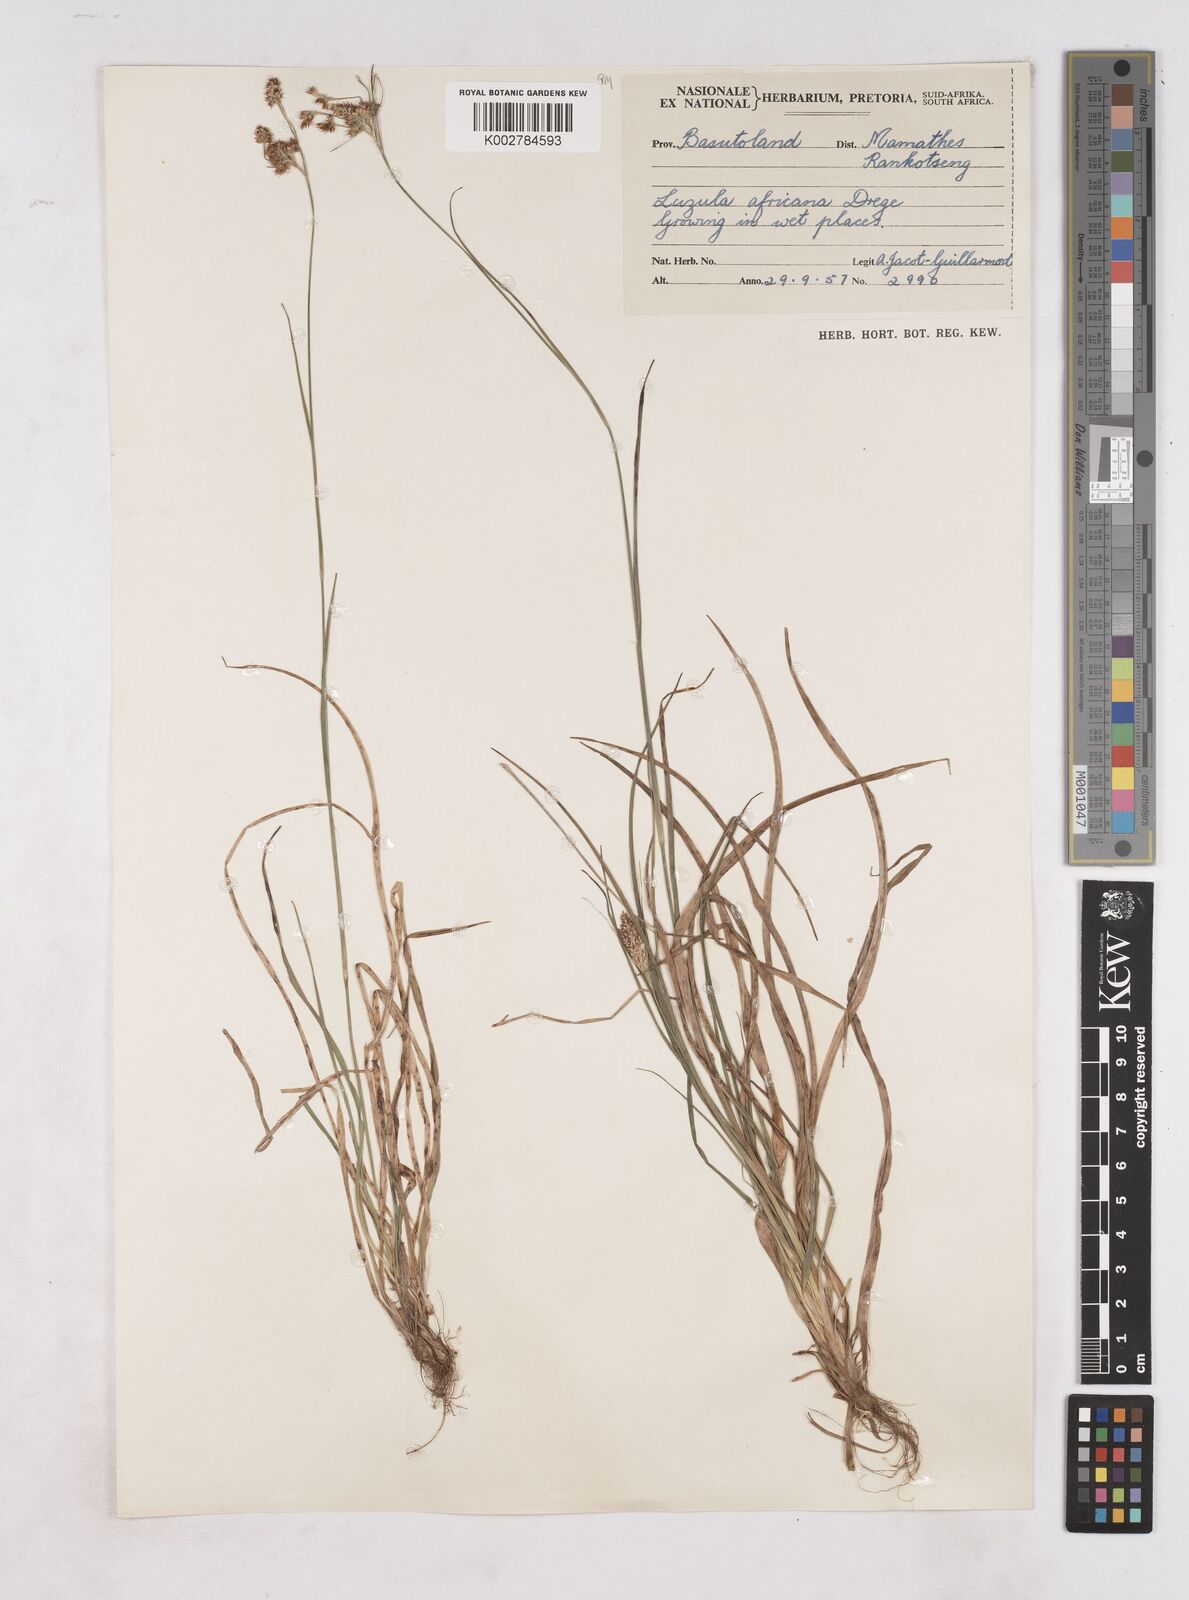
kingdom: Plantae
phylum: Tracheophyta
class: Liliopsida
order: Poales
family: Juncaceae
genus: Luzula
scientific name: Luzula africana
